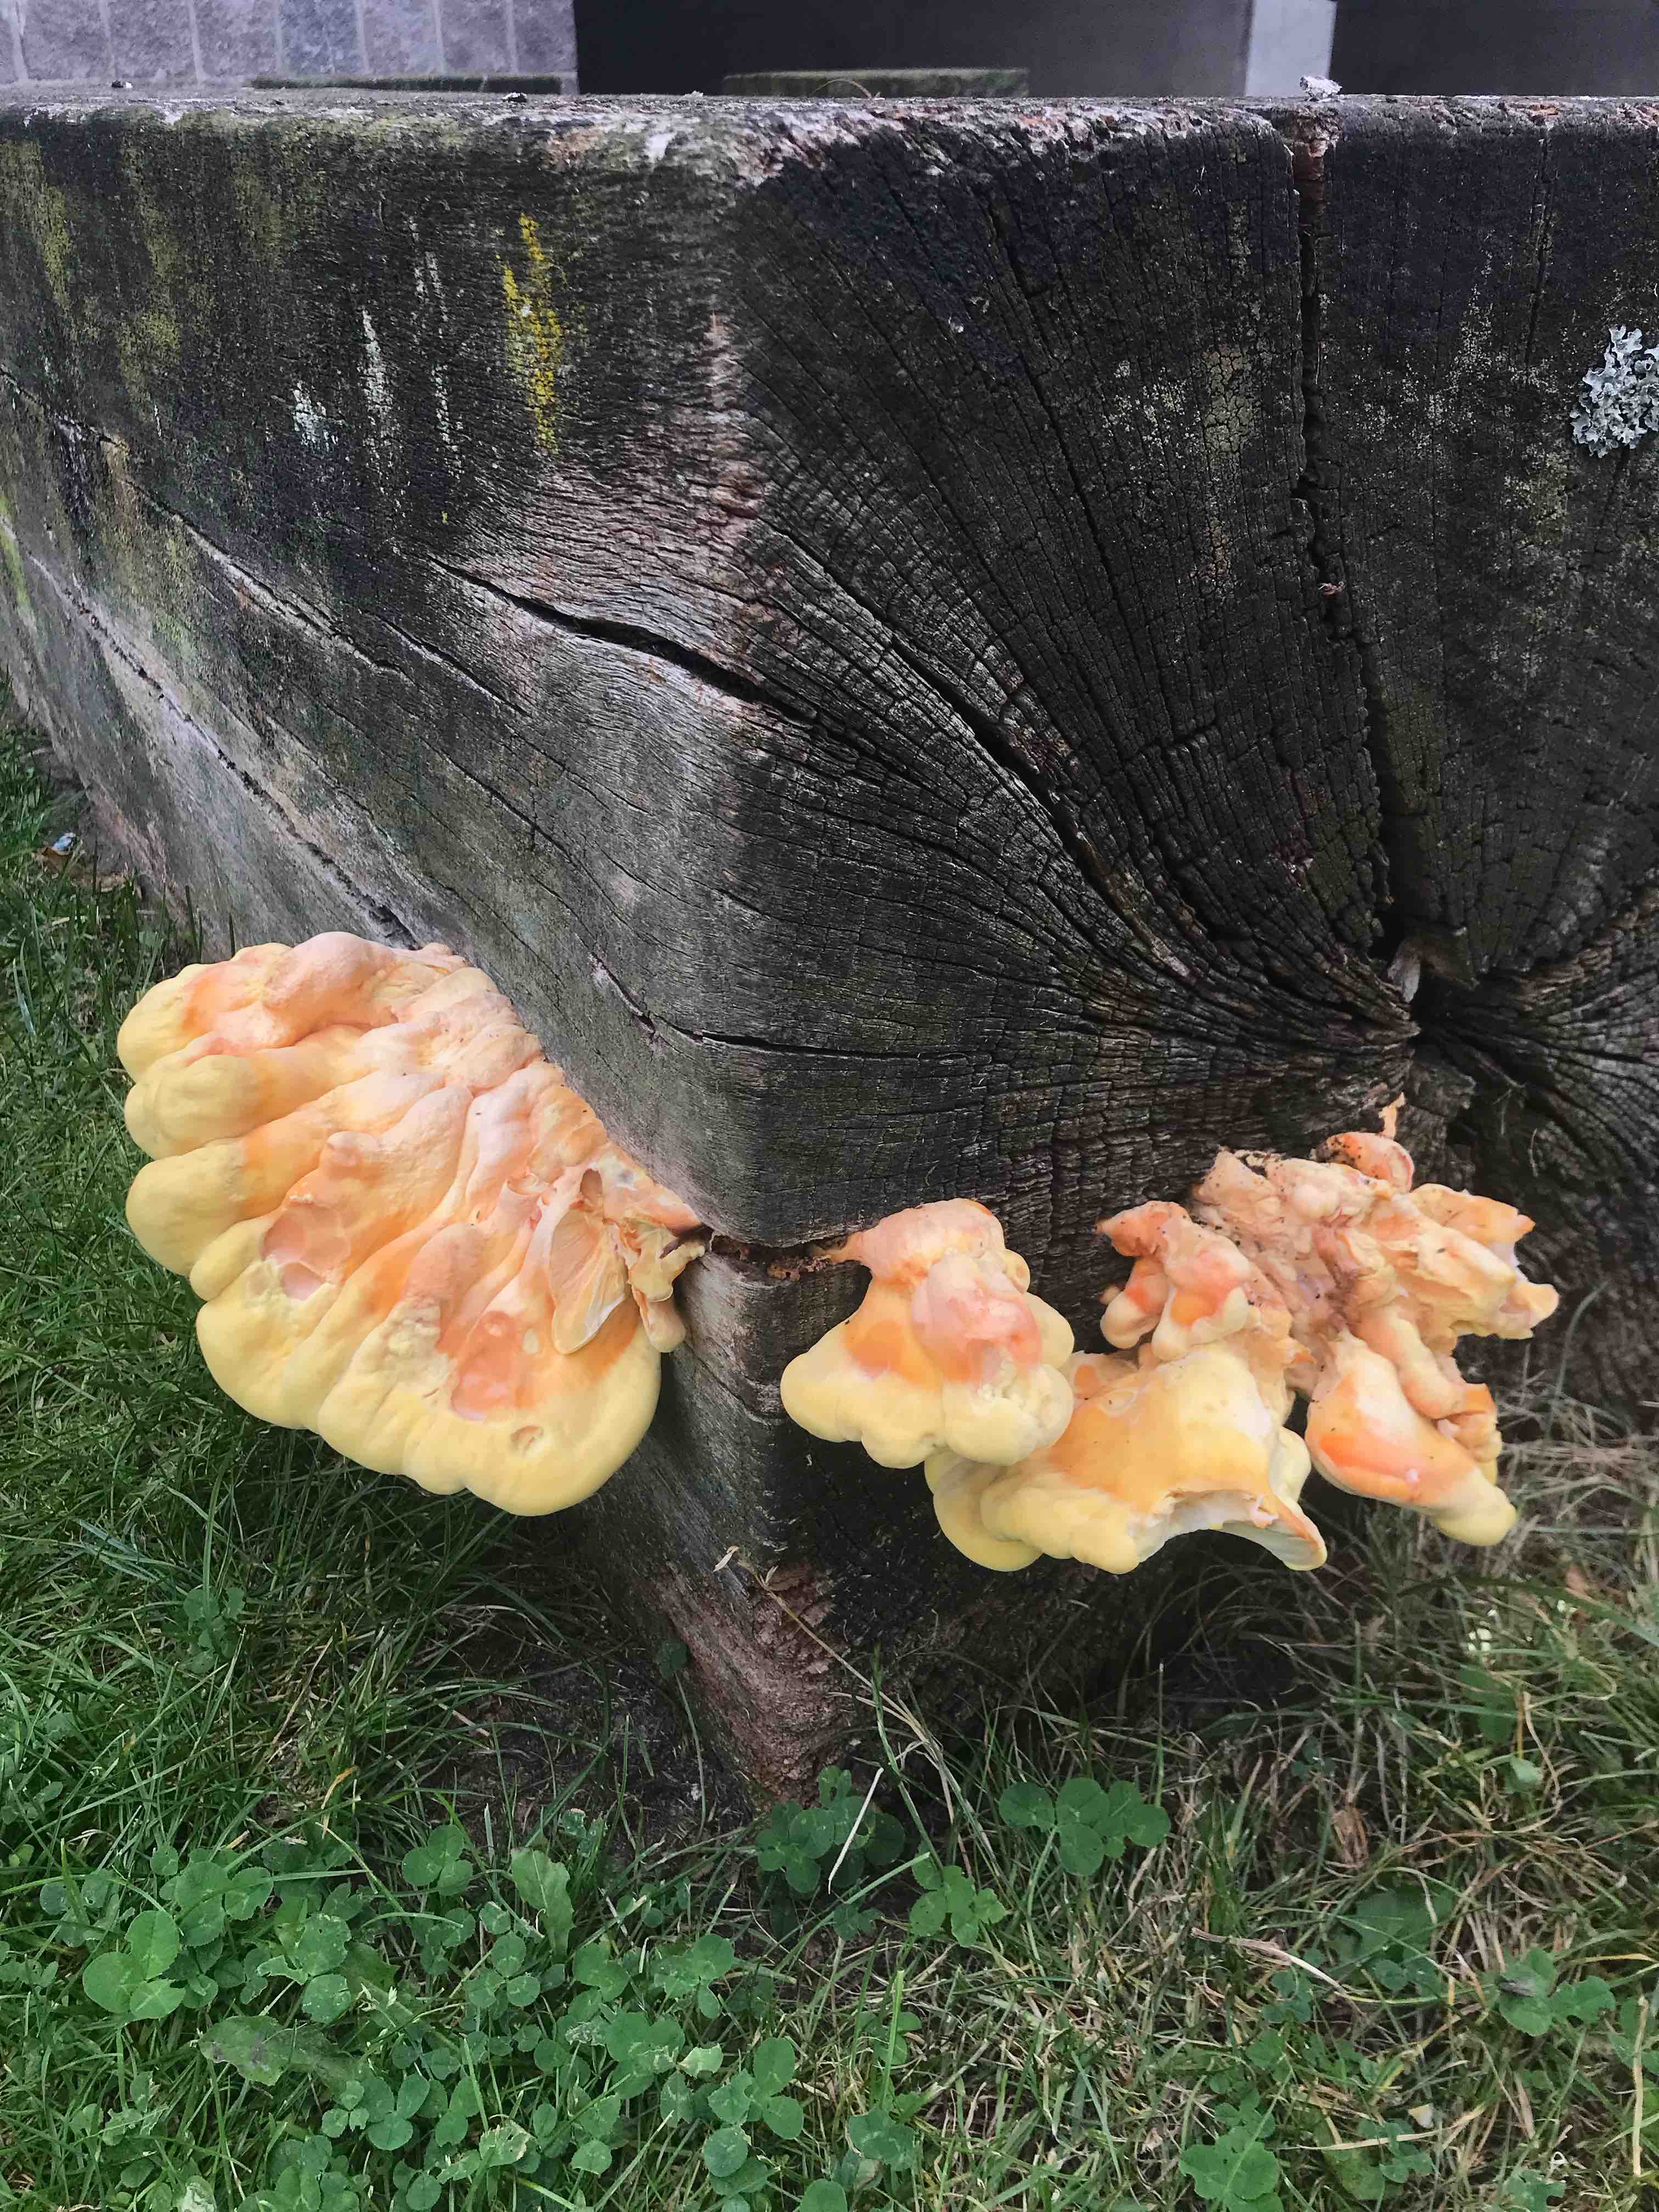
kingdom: Fungi
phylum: Basidiomycota
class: Agaricomycetes
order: Polyporales
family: Laetiporaceae
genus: Laetiporus
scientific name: Laetiporus sulphureus
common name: svovlporesvamp
